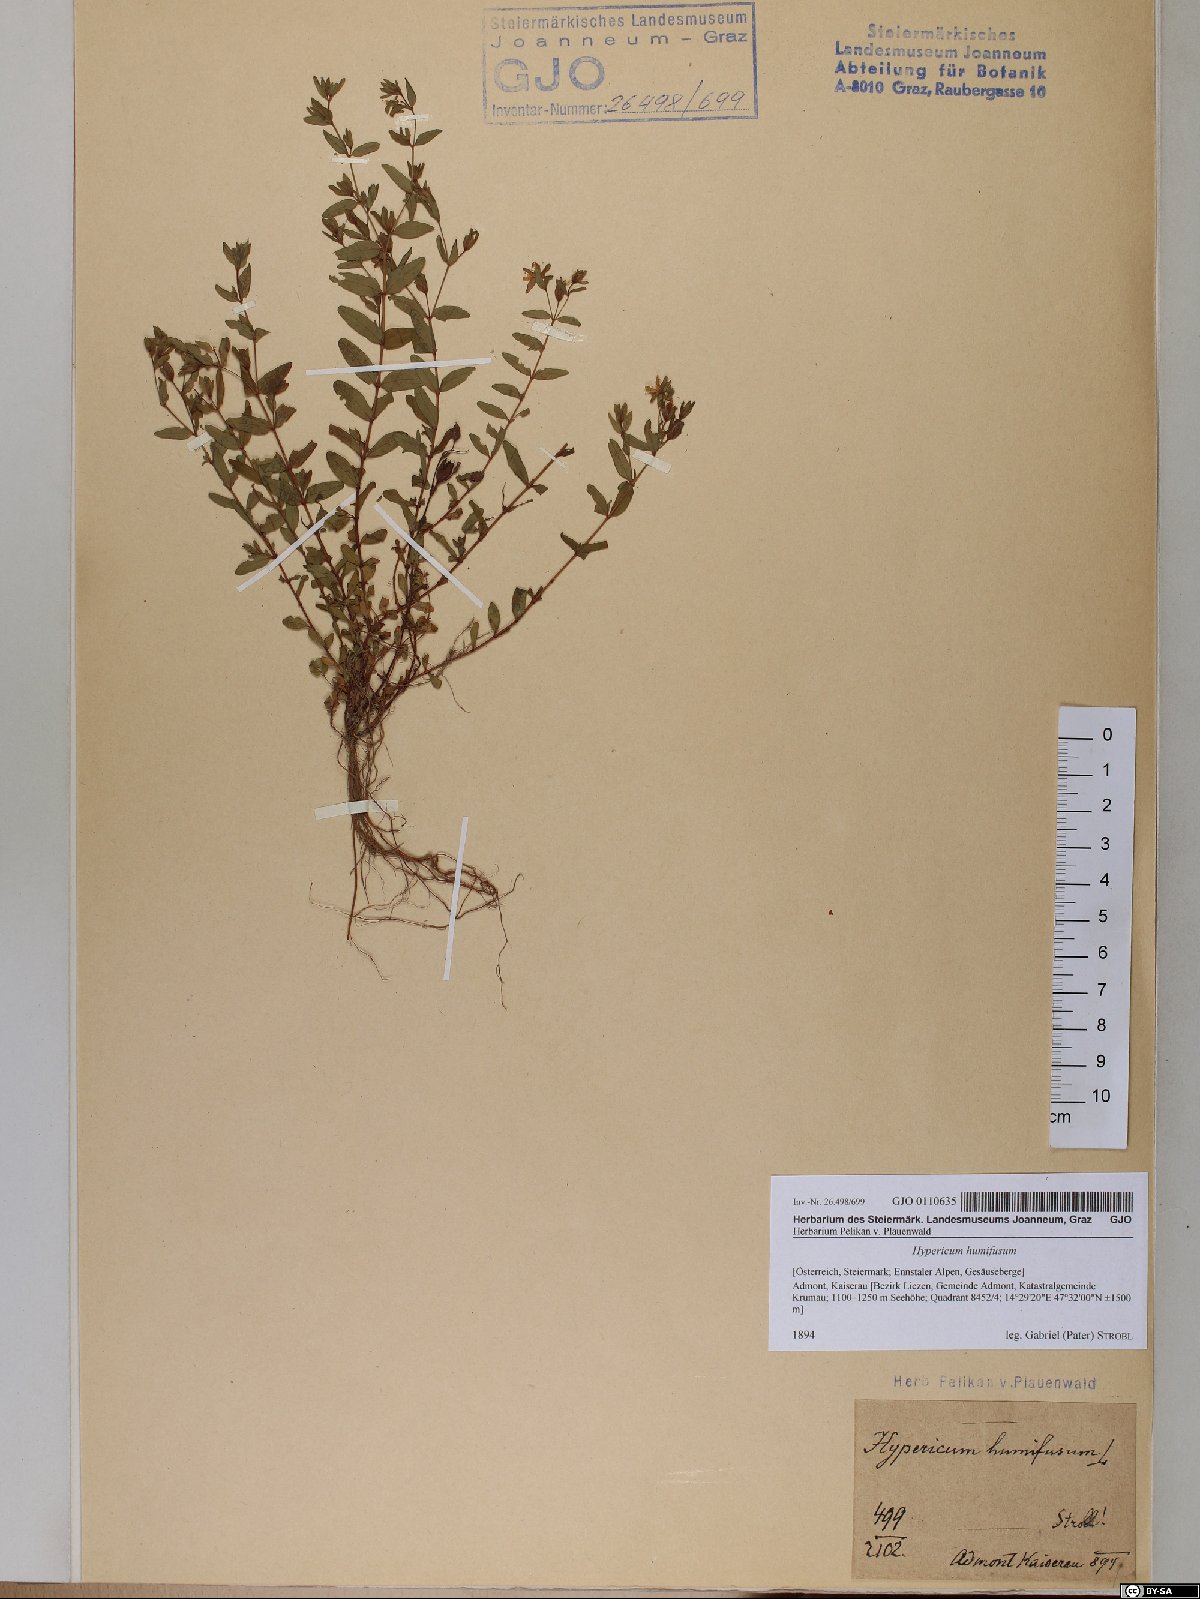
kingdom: Plantae
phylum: Tracheophyta
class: Magnoliopsida
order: Malpighiales
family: Hypericaceae
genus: Hypericum
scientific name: Hypericum humifusum
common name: Trailing st. john's-wort
